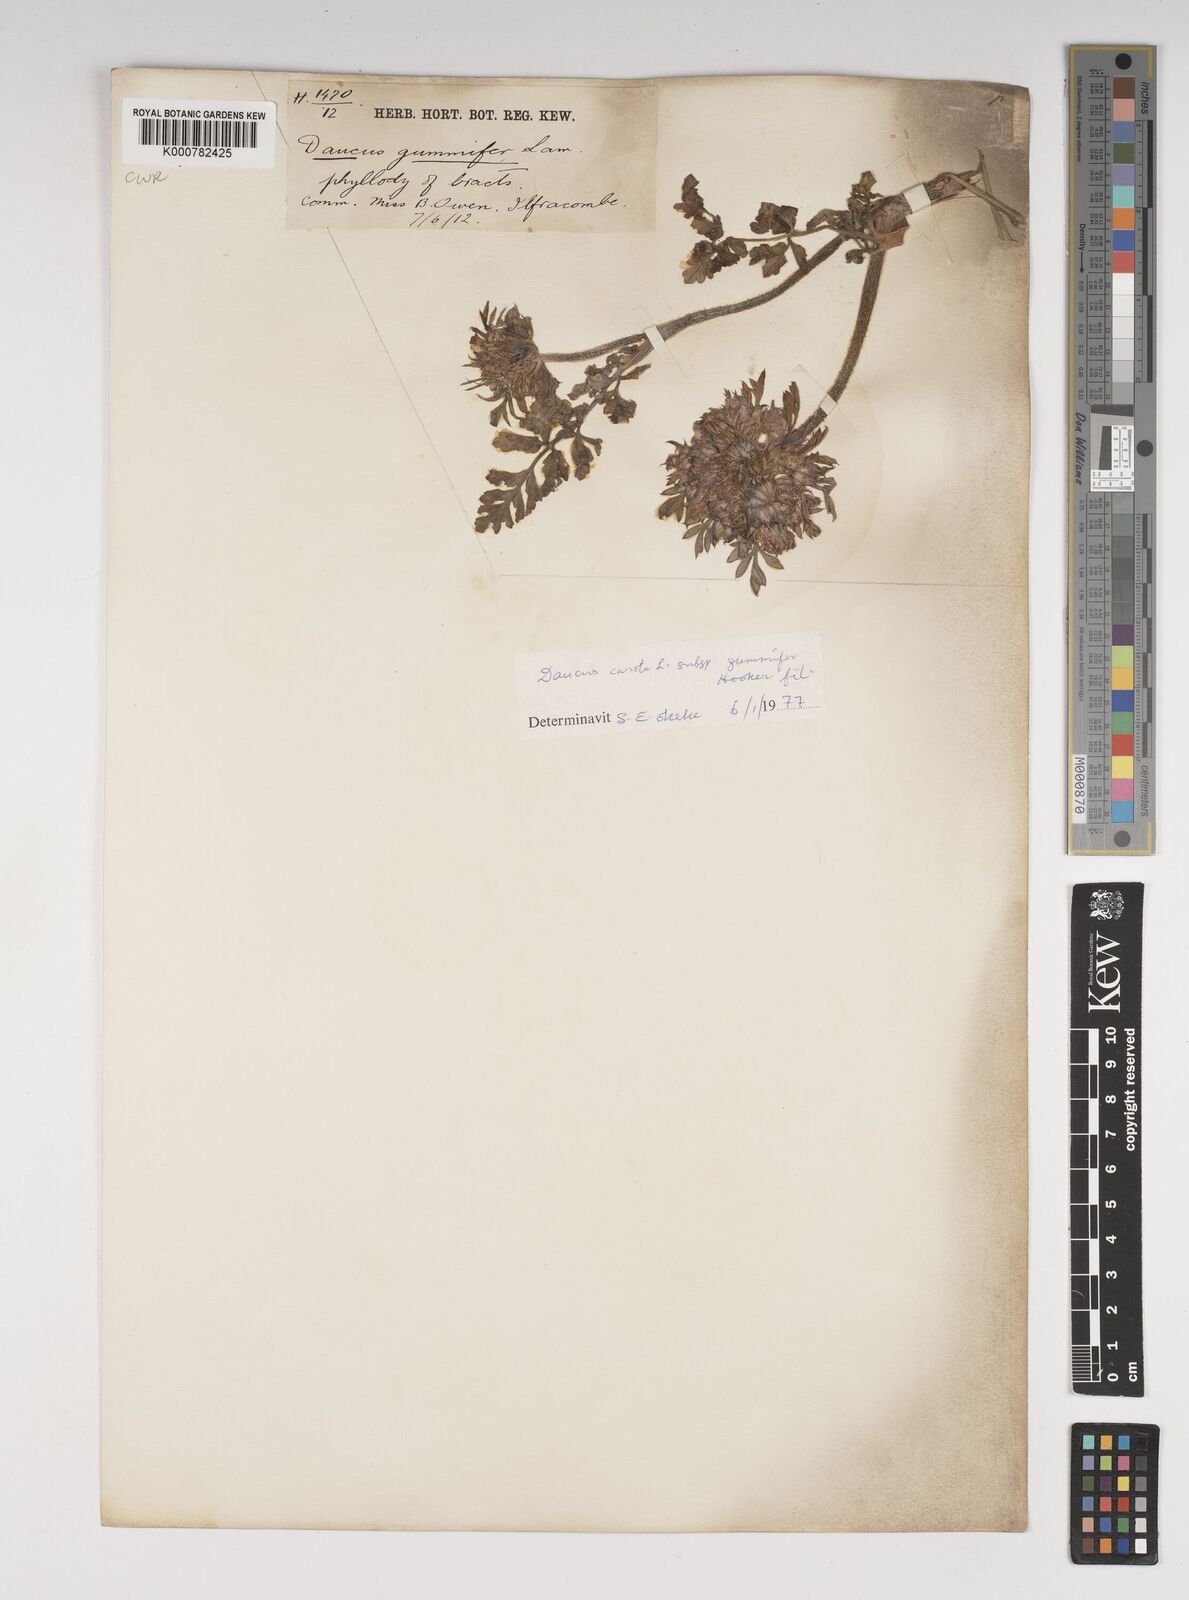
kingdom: Plantae
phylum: Tracheophyta
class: Magnoliopsida
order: Apiales
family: Apiaceae
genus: Daucus
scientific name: Daucus carota
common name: Wild carrot
